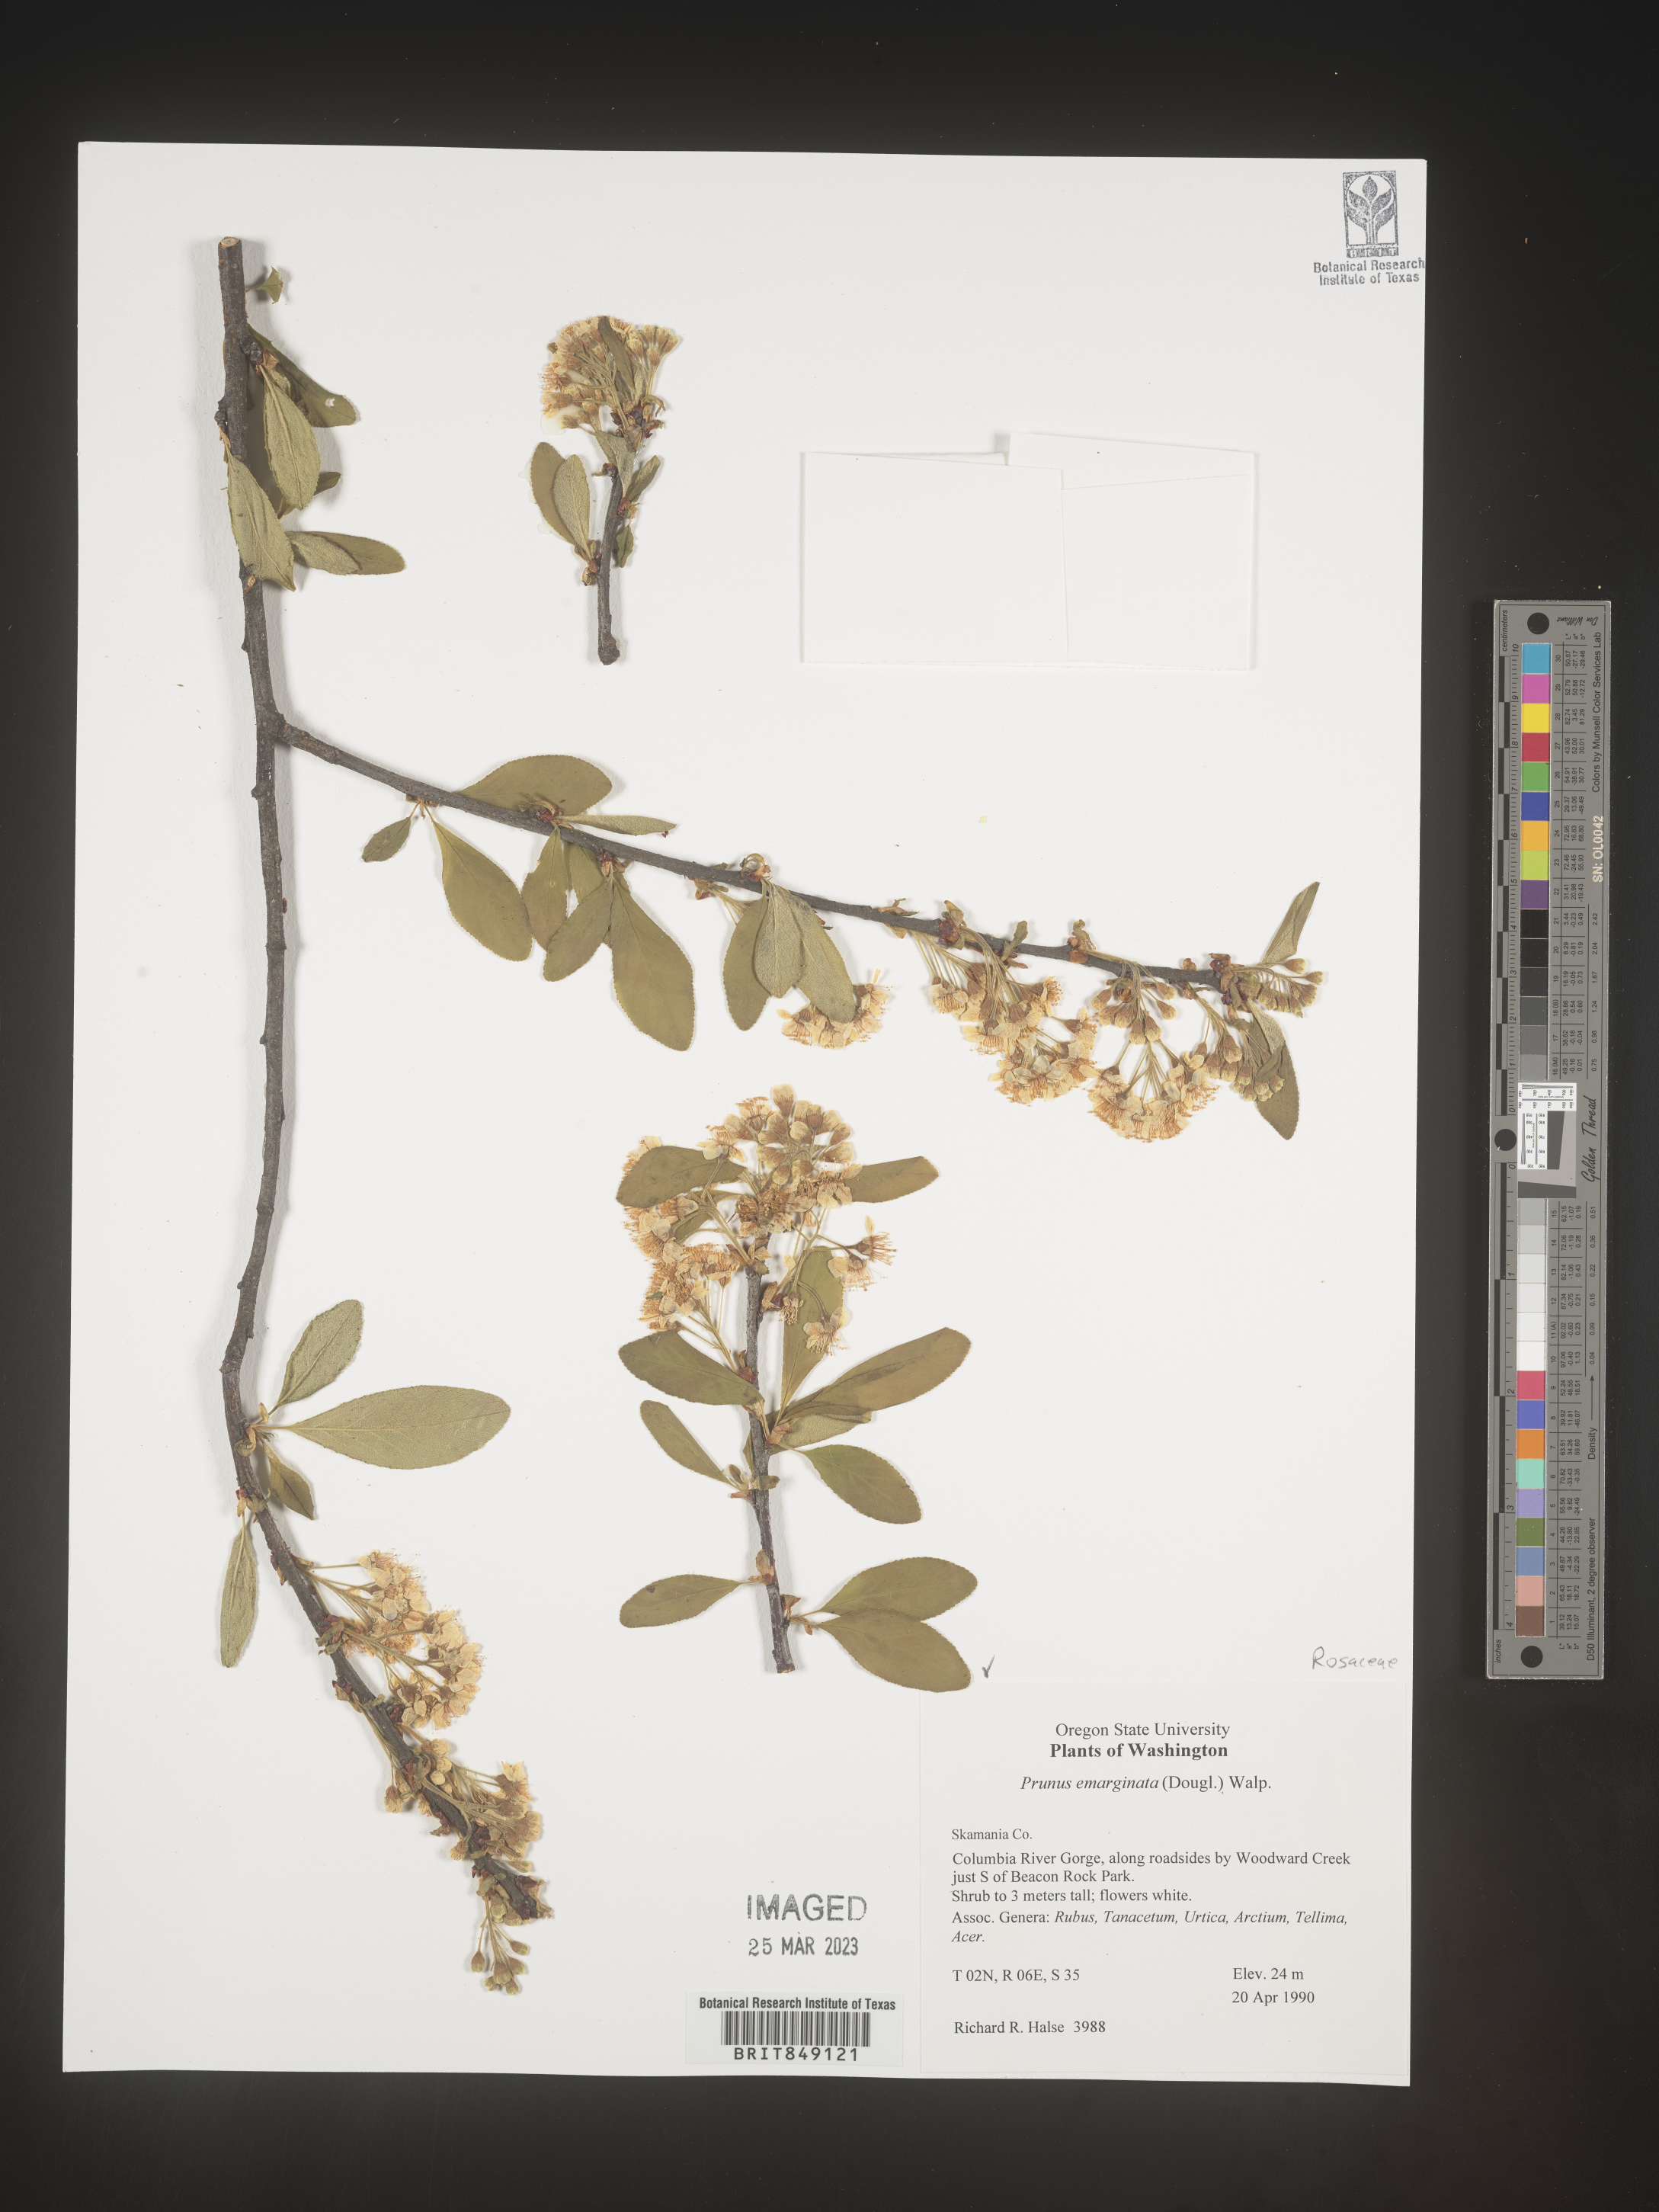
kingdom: Plantae
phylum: Tracheophyta
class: Magnoliopsida
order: Rosales
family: Rosaceae
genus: Prunus
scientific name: Prunus emarginata
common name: Bitter cherry
